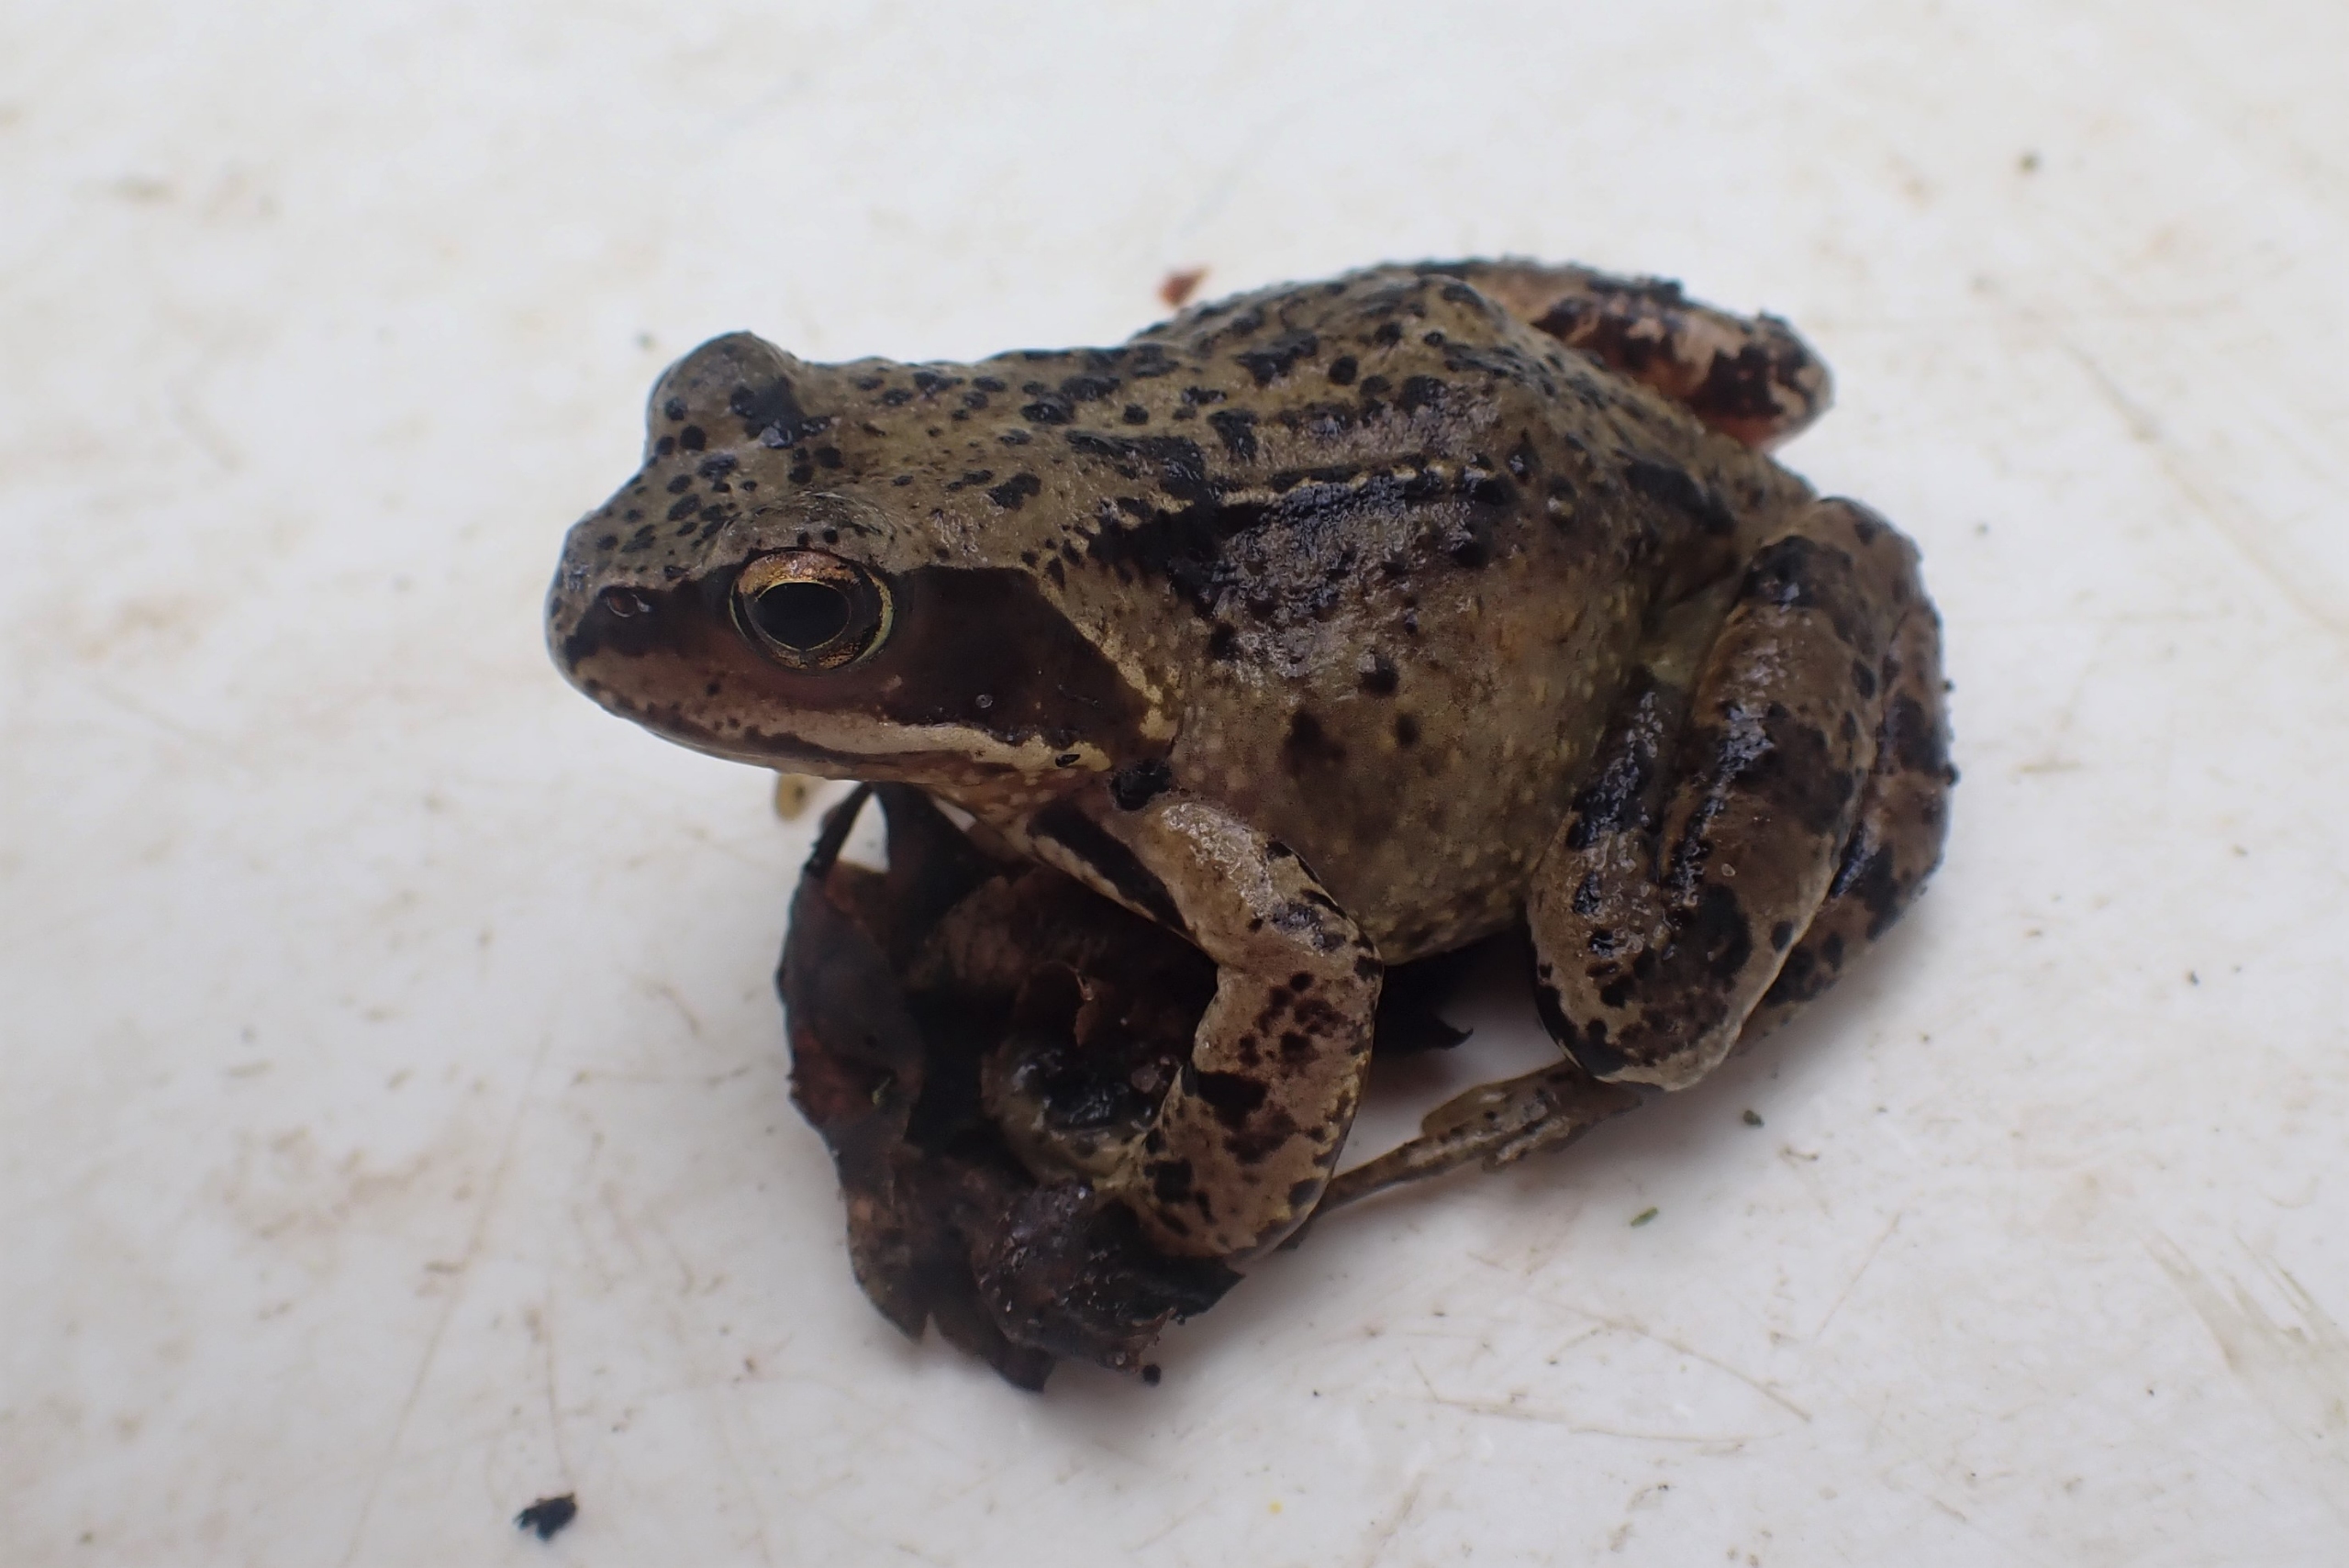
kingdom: Animalia
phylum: Chordata
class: Amphibia
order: Anura
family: Ranidae
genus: Rana
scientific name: Rana temporaria
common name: Butsnudet frø
